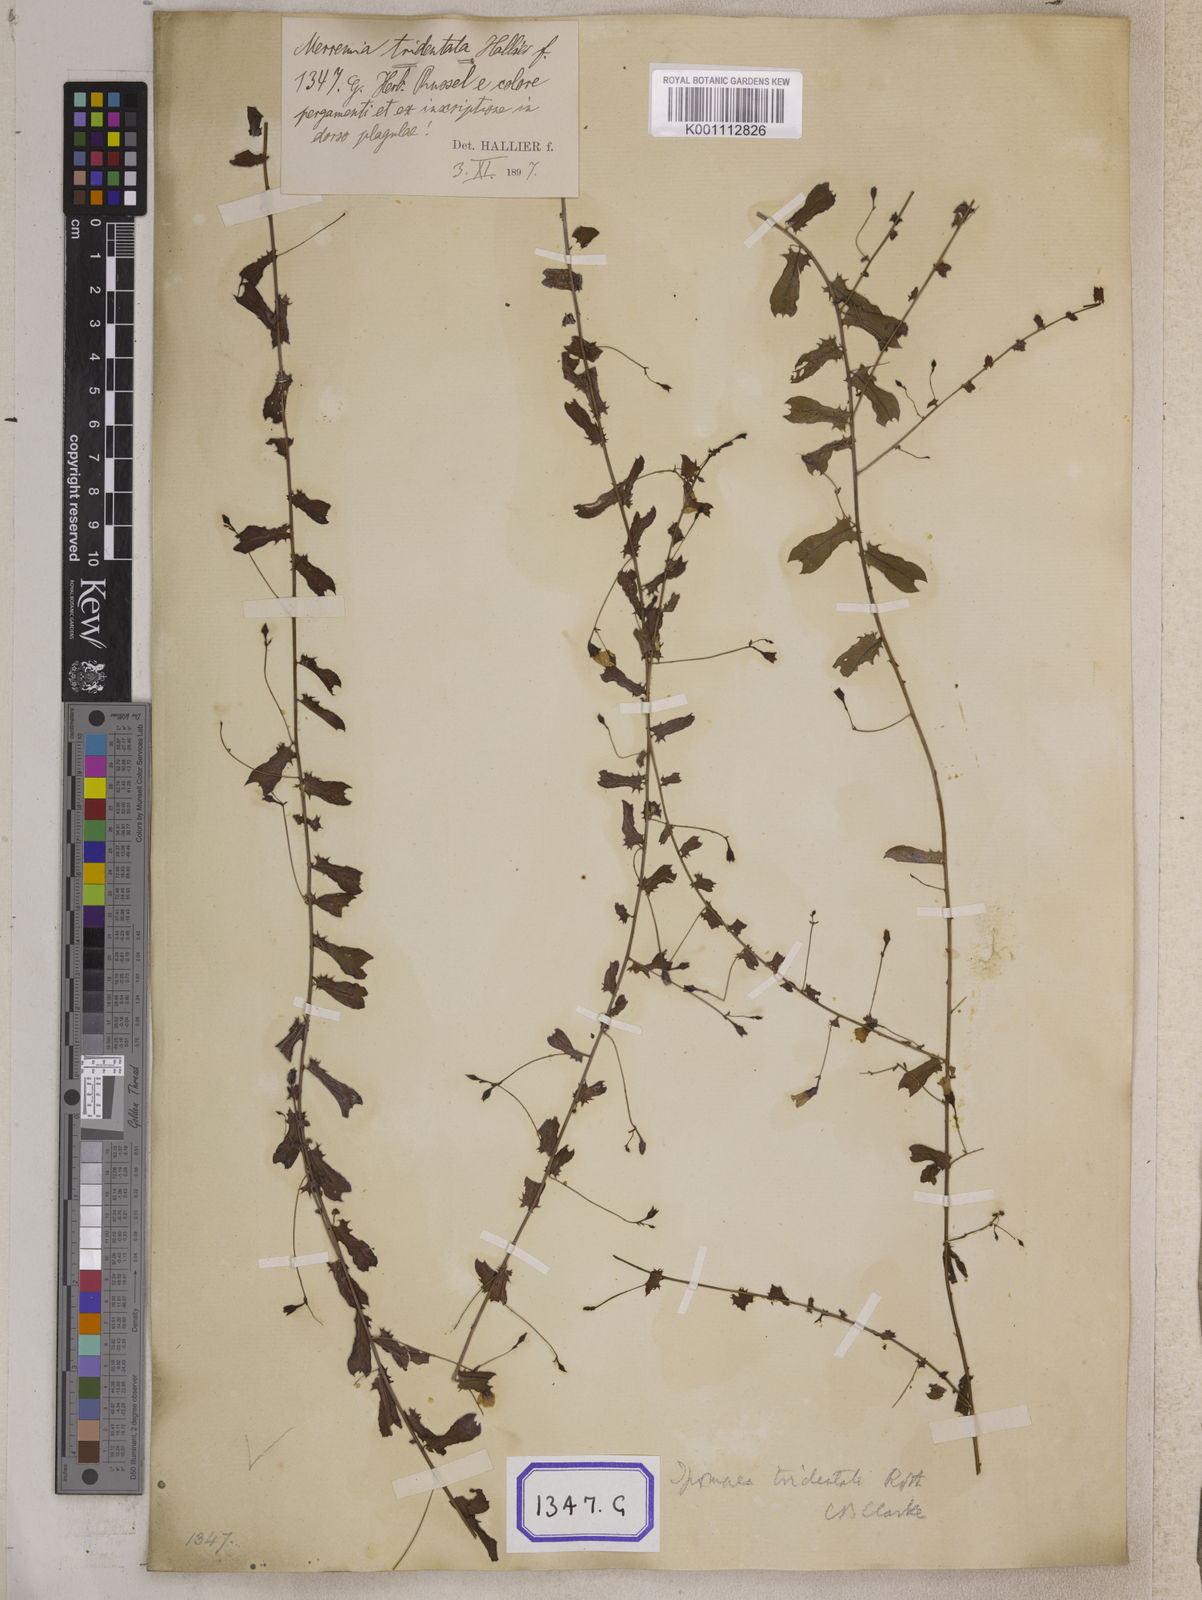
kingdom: Plantae
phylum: Tracheophyta
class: Magnoliopsida
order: Solanales
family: Convolvulaceae
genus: Xenostegia
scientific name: Xenostegia tridentata
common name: African morningvine
